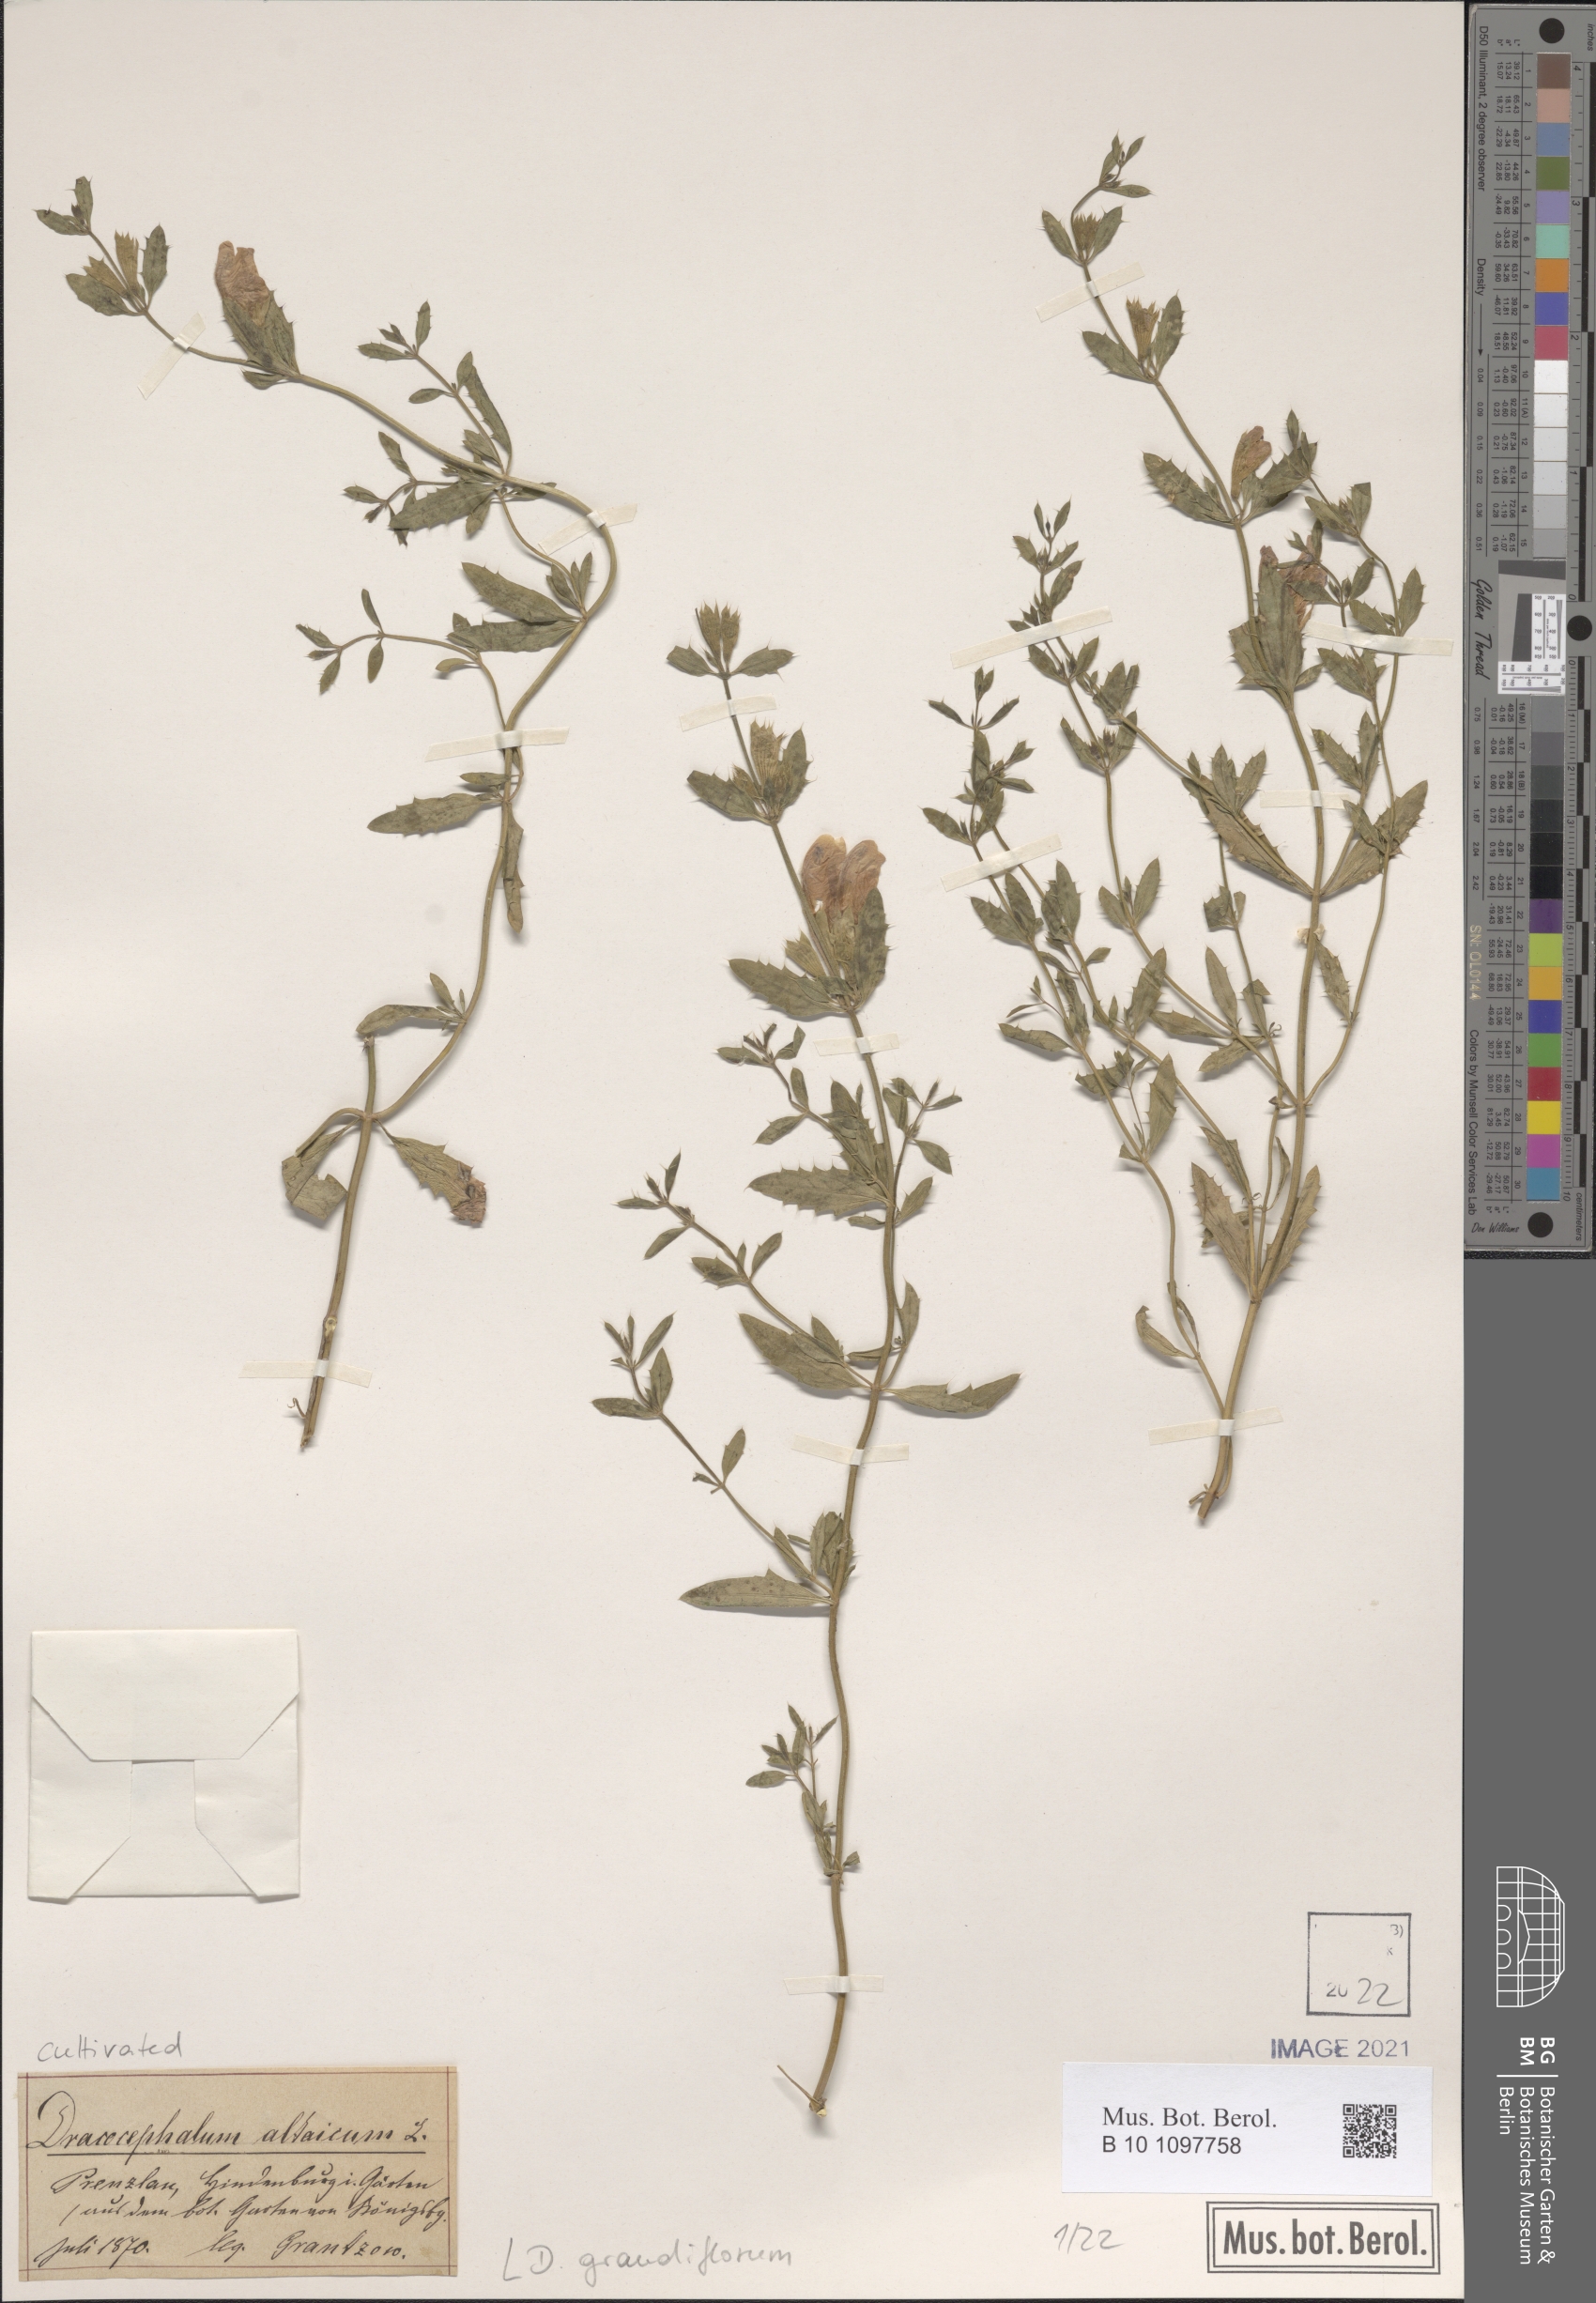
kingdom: Plantae
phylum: Tracheophyta
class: Magnoliopsida
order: Lamiales
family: Lamiaceae
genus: Dracocephalum
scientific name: Dracocephalum grandiflorum
